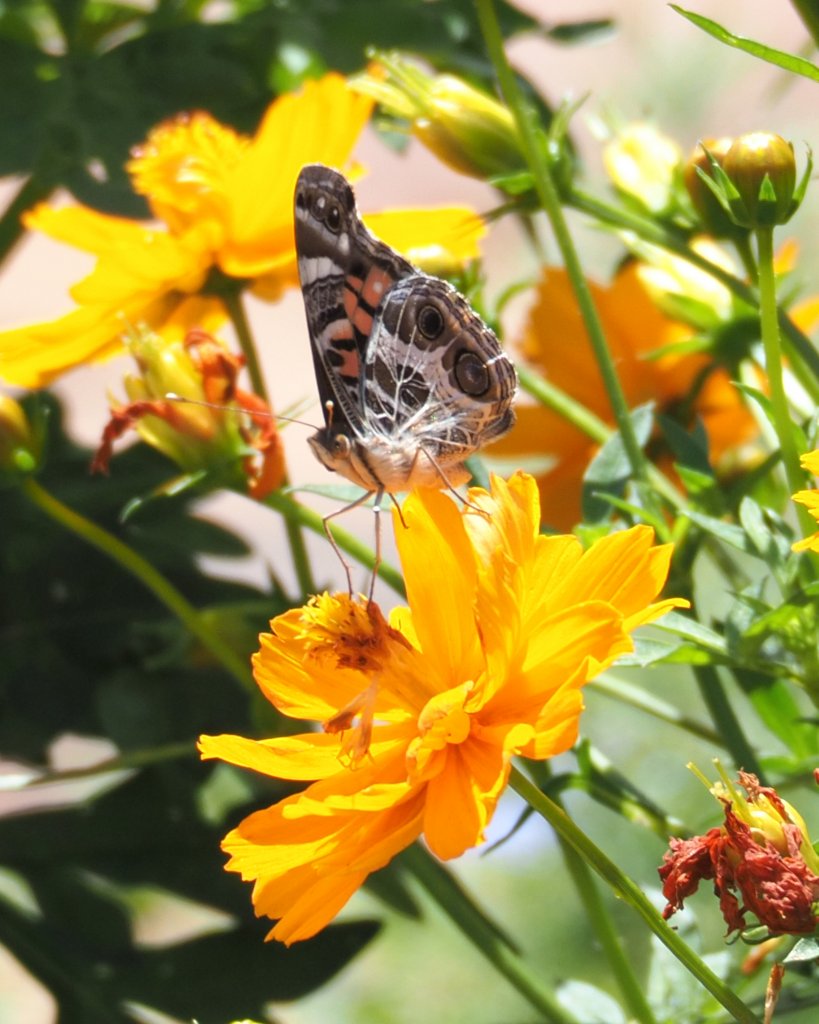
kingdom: Animalia
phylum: Arthropoda
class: Insecta
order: Lepidoptera
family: Nymphalidae
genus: Vanessa
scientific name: Vanessa virginiensis
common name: American Lady
